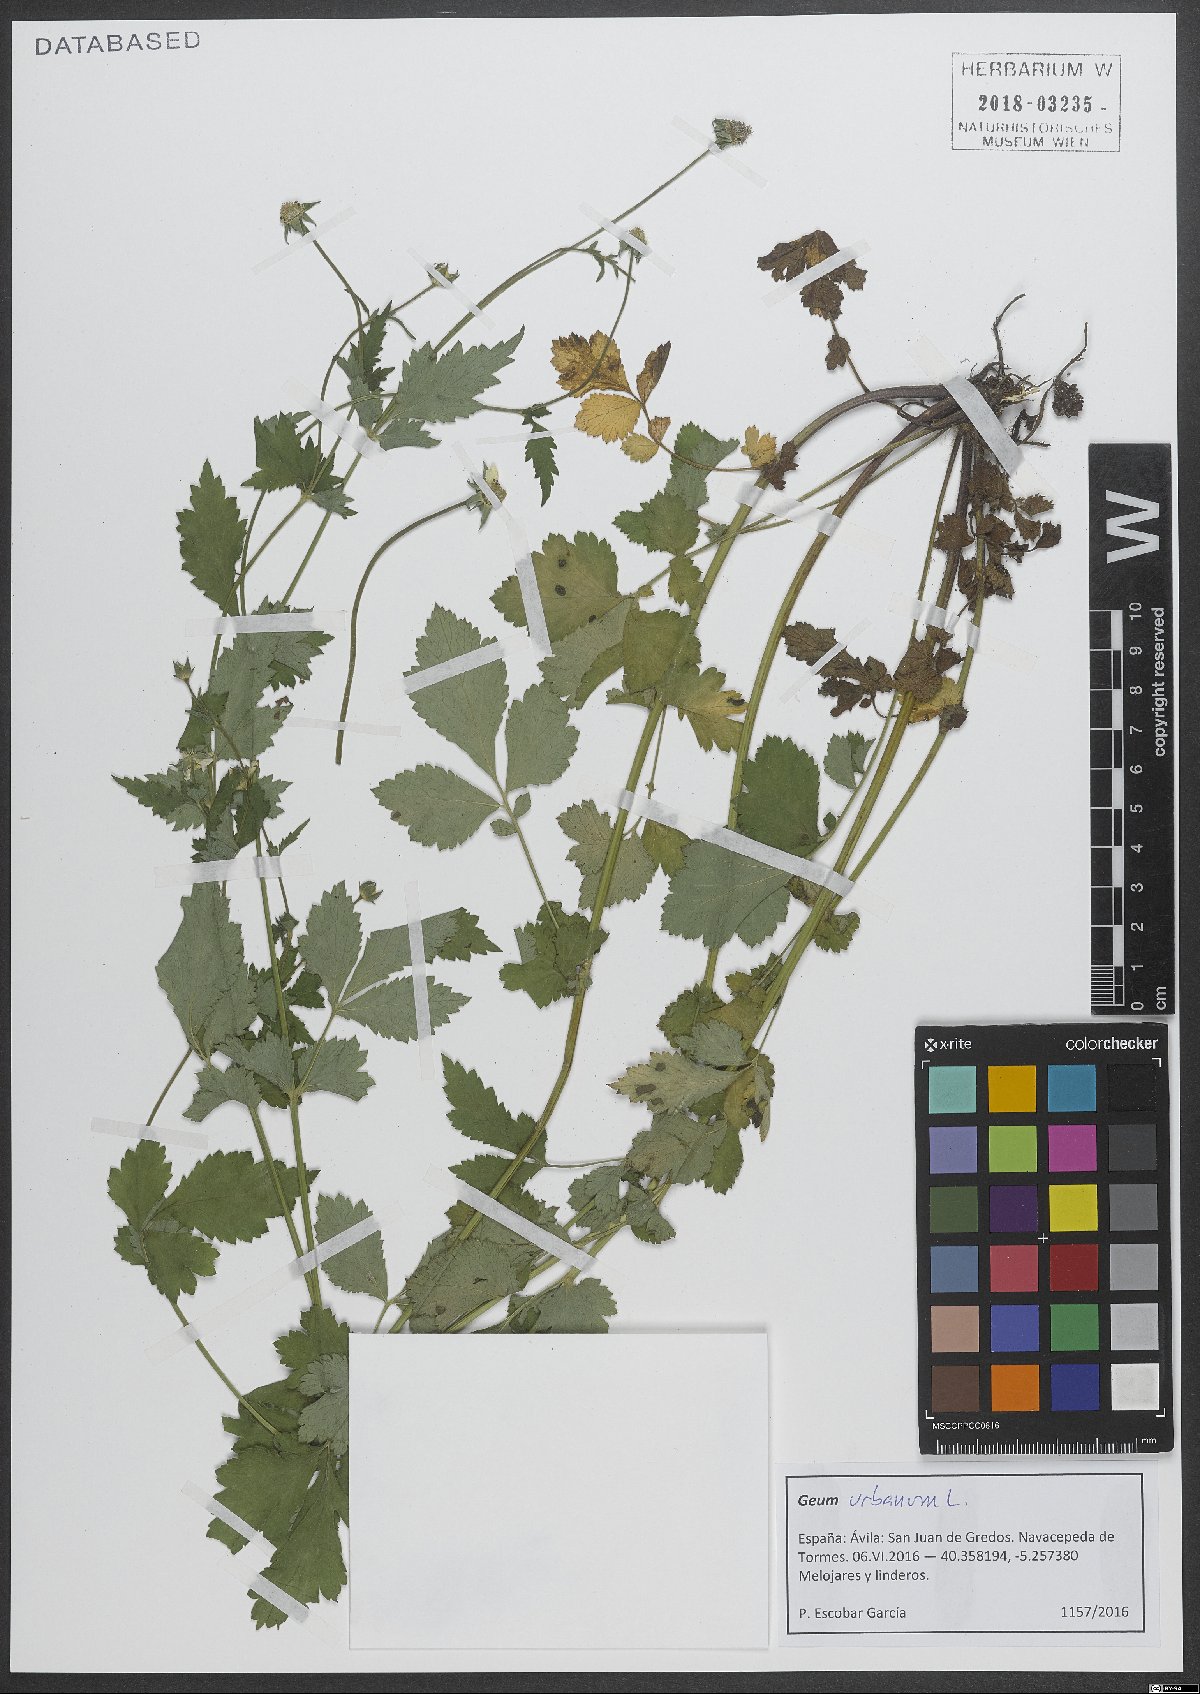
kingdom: Plantae
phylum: Tracheophyta
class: Magnoliopsida
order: Rosales
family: Rosaceae
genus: Geum
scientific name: Geum urbanum
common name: Wood avens
